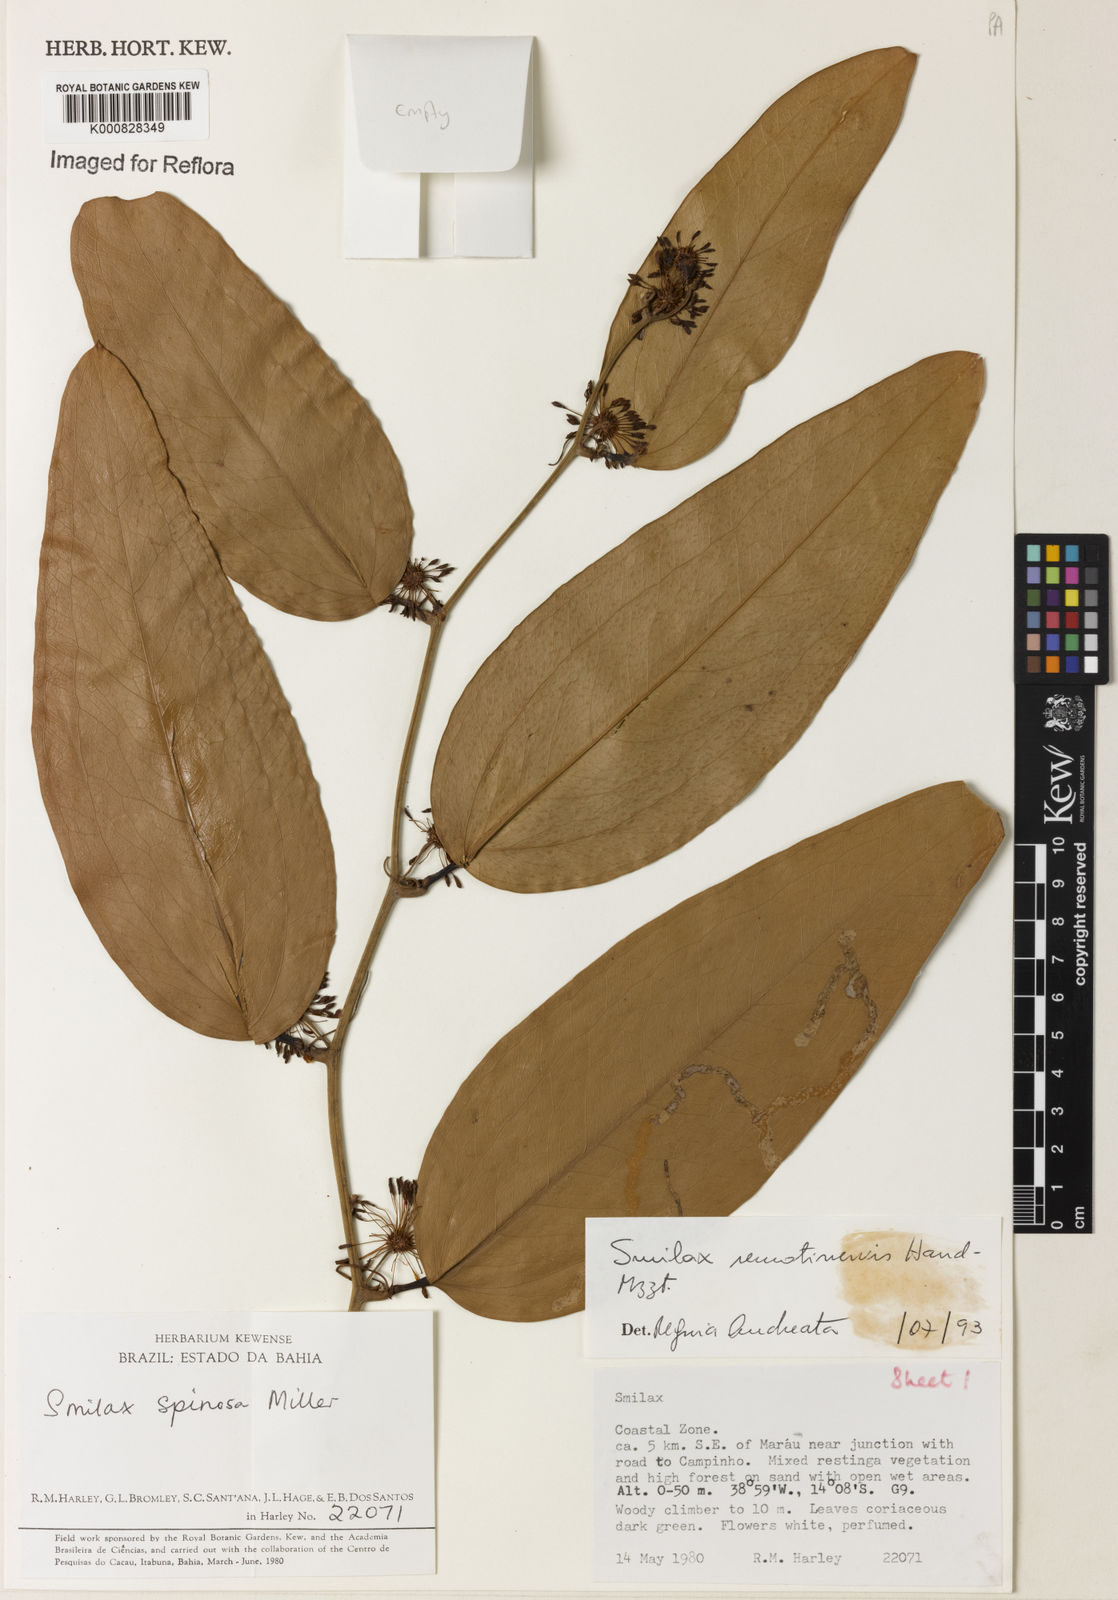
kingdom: Plantae
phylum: Tracheophyta
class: Liliopsida
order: Liliales
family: Smilacaceae
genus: Smilax
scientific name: Smilax remotinervis
